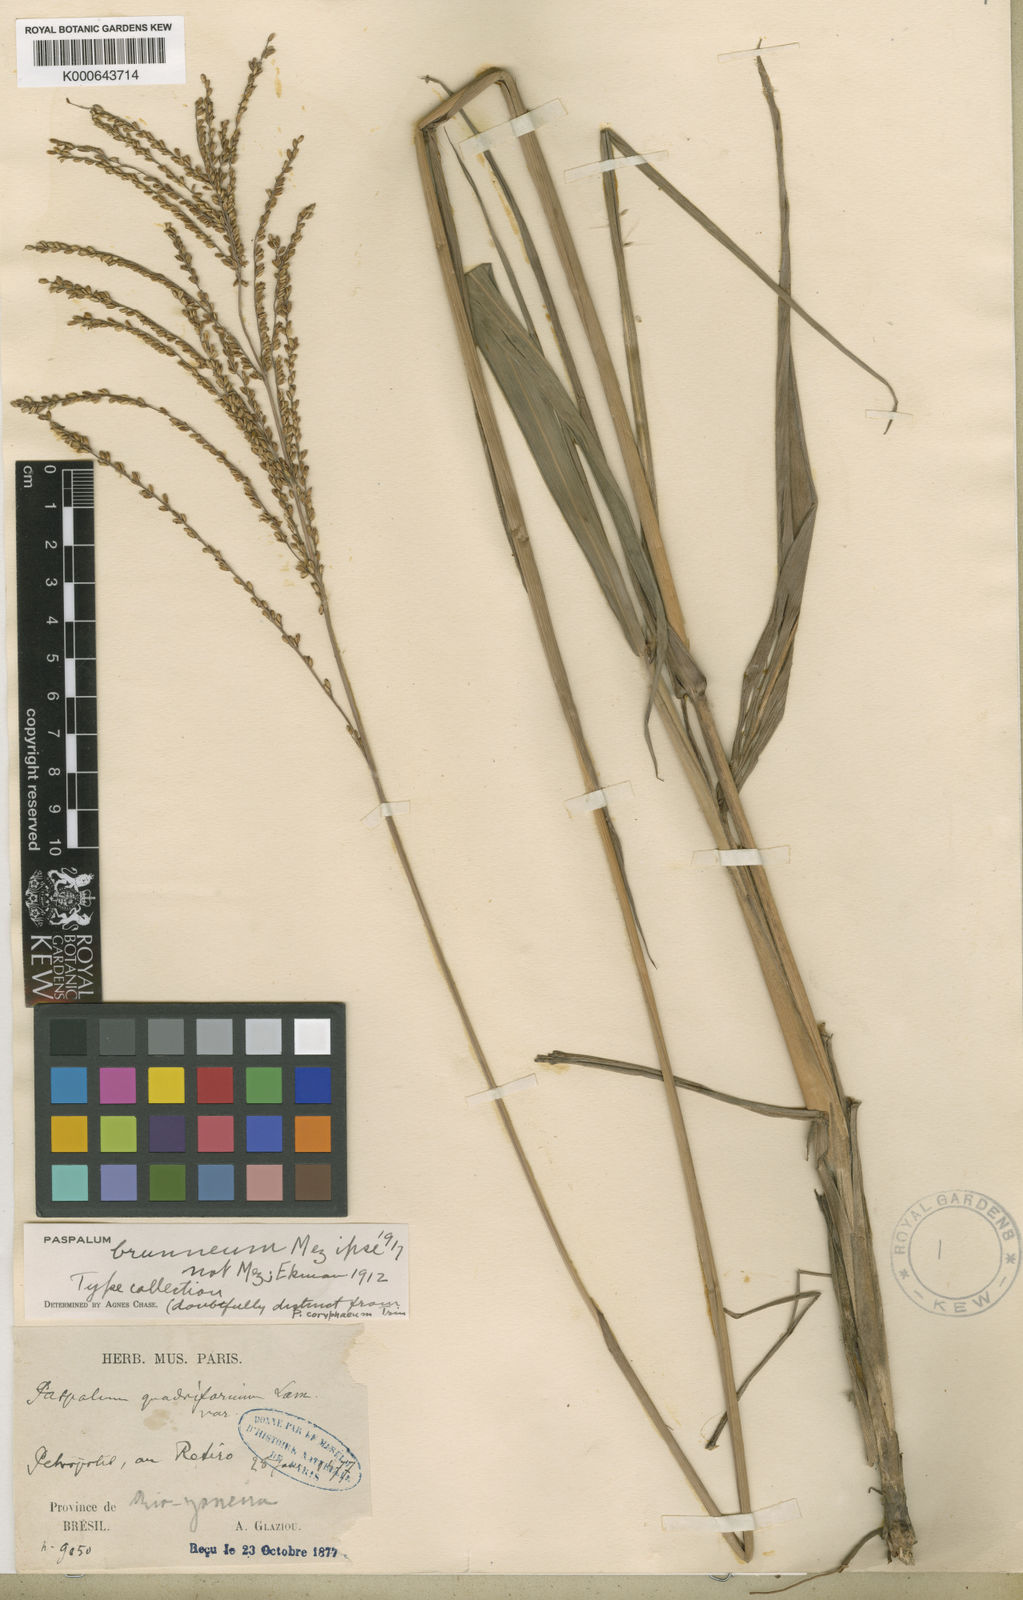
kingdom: Plantae
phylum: Tracheophyta
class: Liliopsida
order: Poales
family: Poaceae
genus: Paspalum
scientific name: Paspalum coryphaeum
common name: Emperor crowngrass
